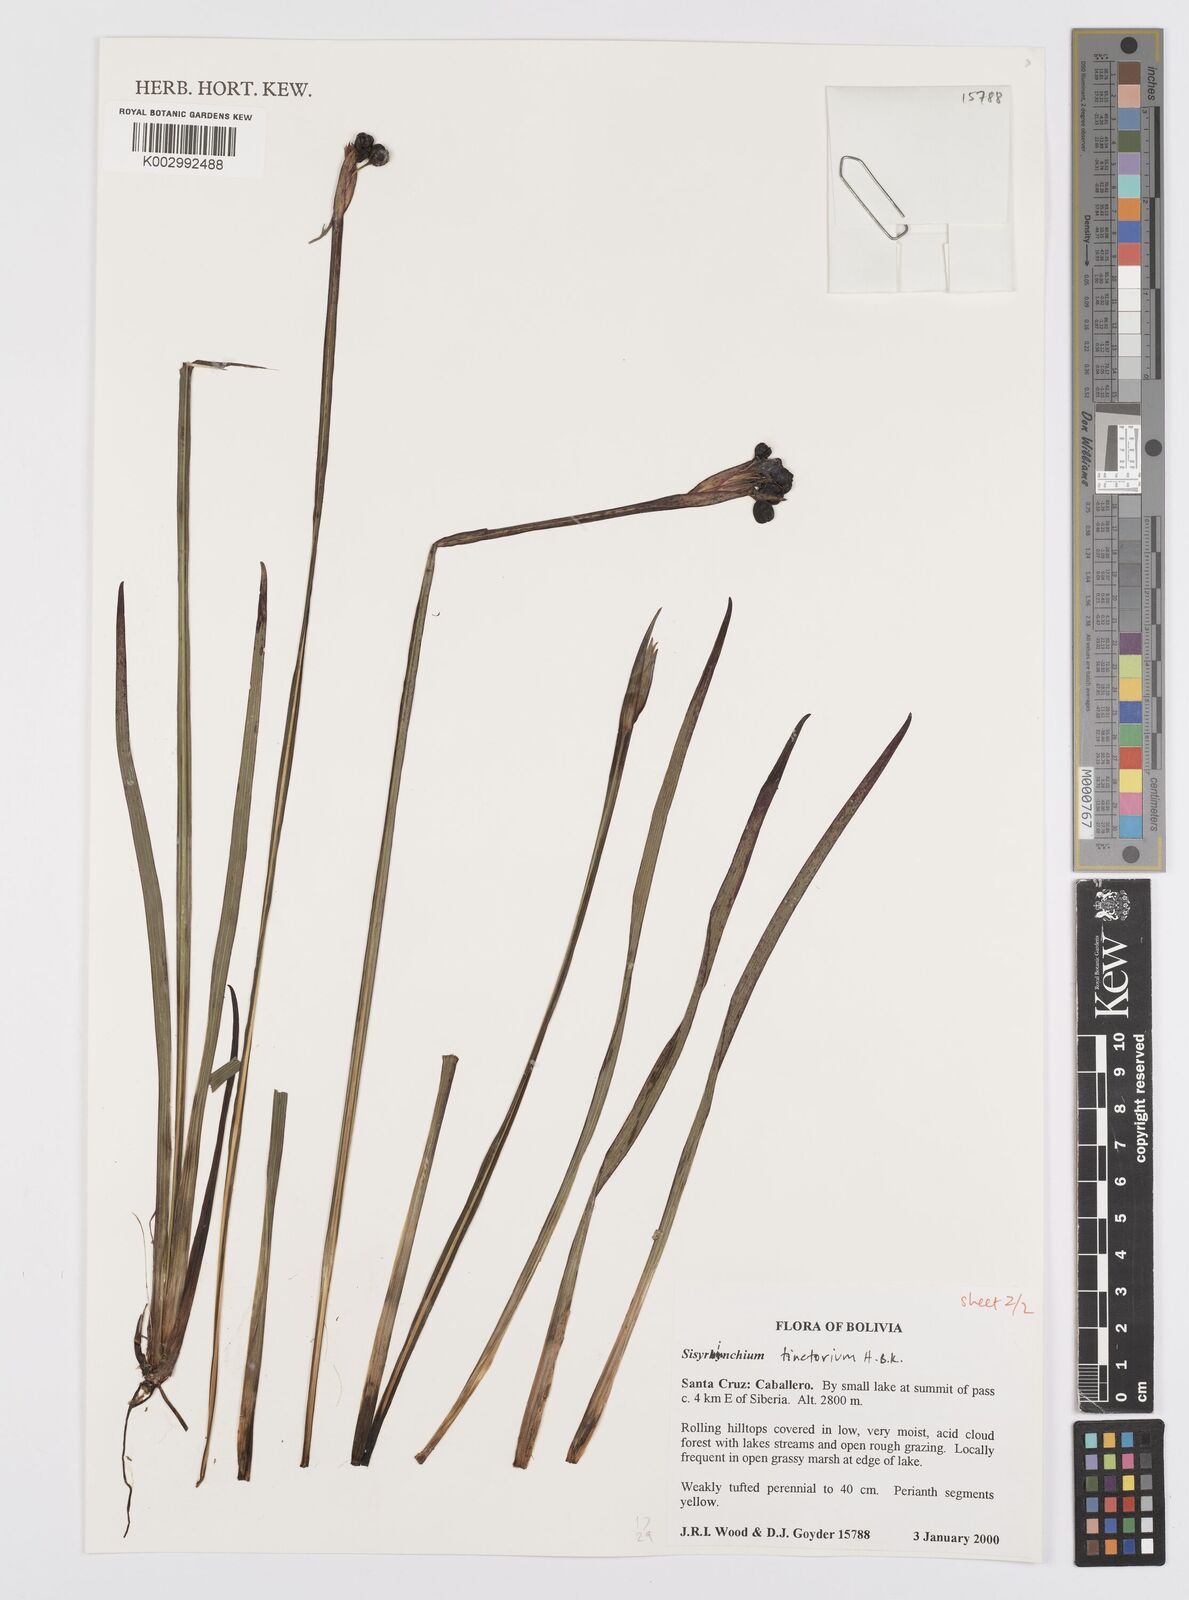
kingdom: Plantae
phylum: Tracheophyta
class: Liliopsida
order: Asparagales
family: Iridaceae
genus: Sisyrinchium
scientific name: Sisyrinchium tinctorium
